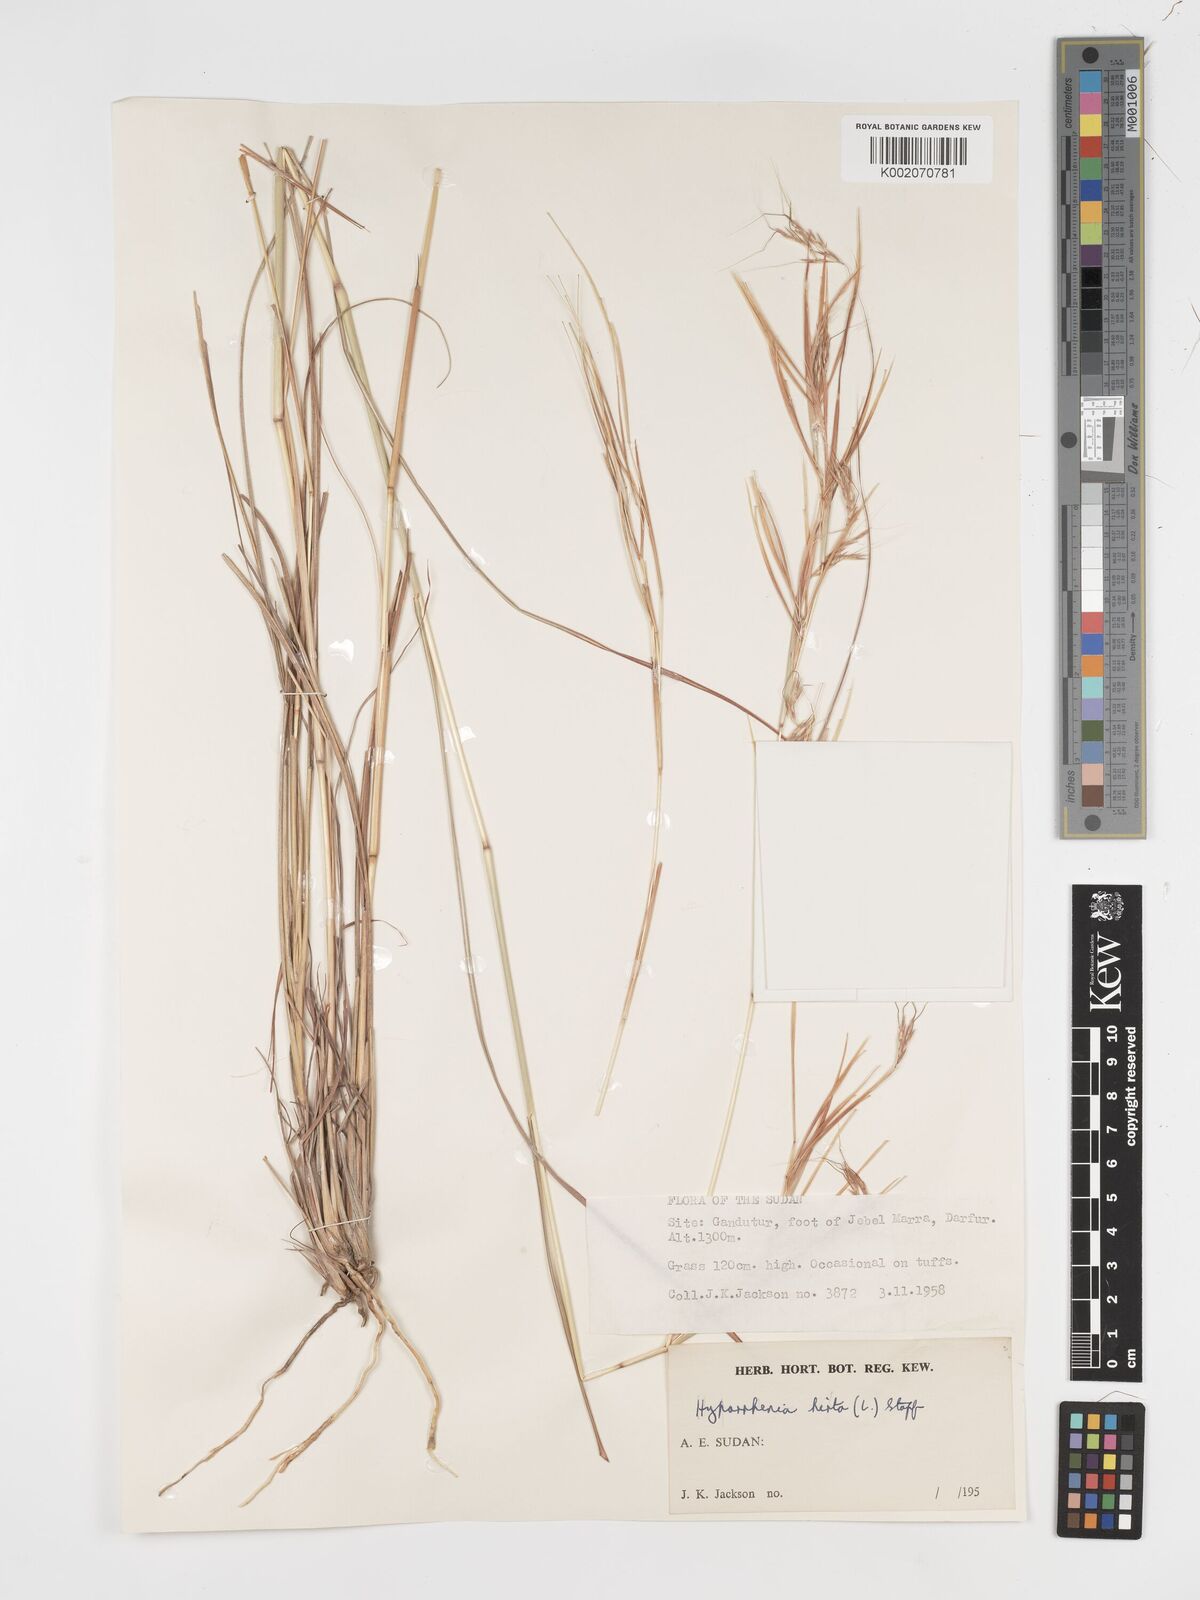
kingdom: Plantae
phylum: Tracheophyta
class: Liliopsida
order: Poales
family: Poaceae
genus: Hyparrhenia
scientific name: Hyparrhenia hirta
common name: Thatching grass
